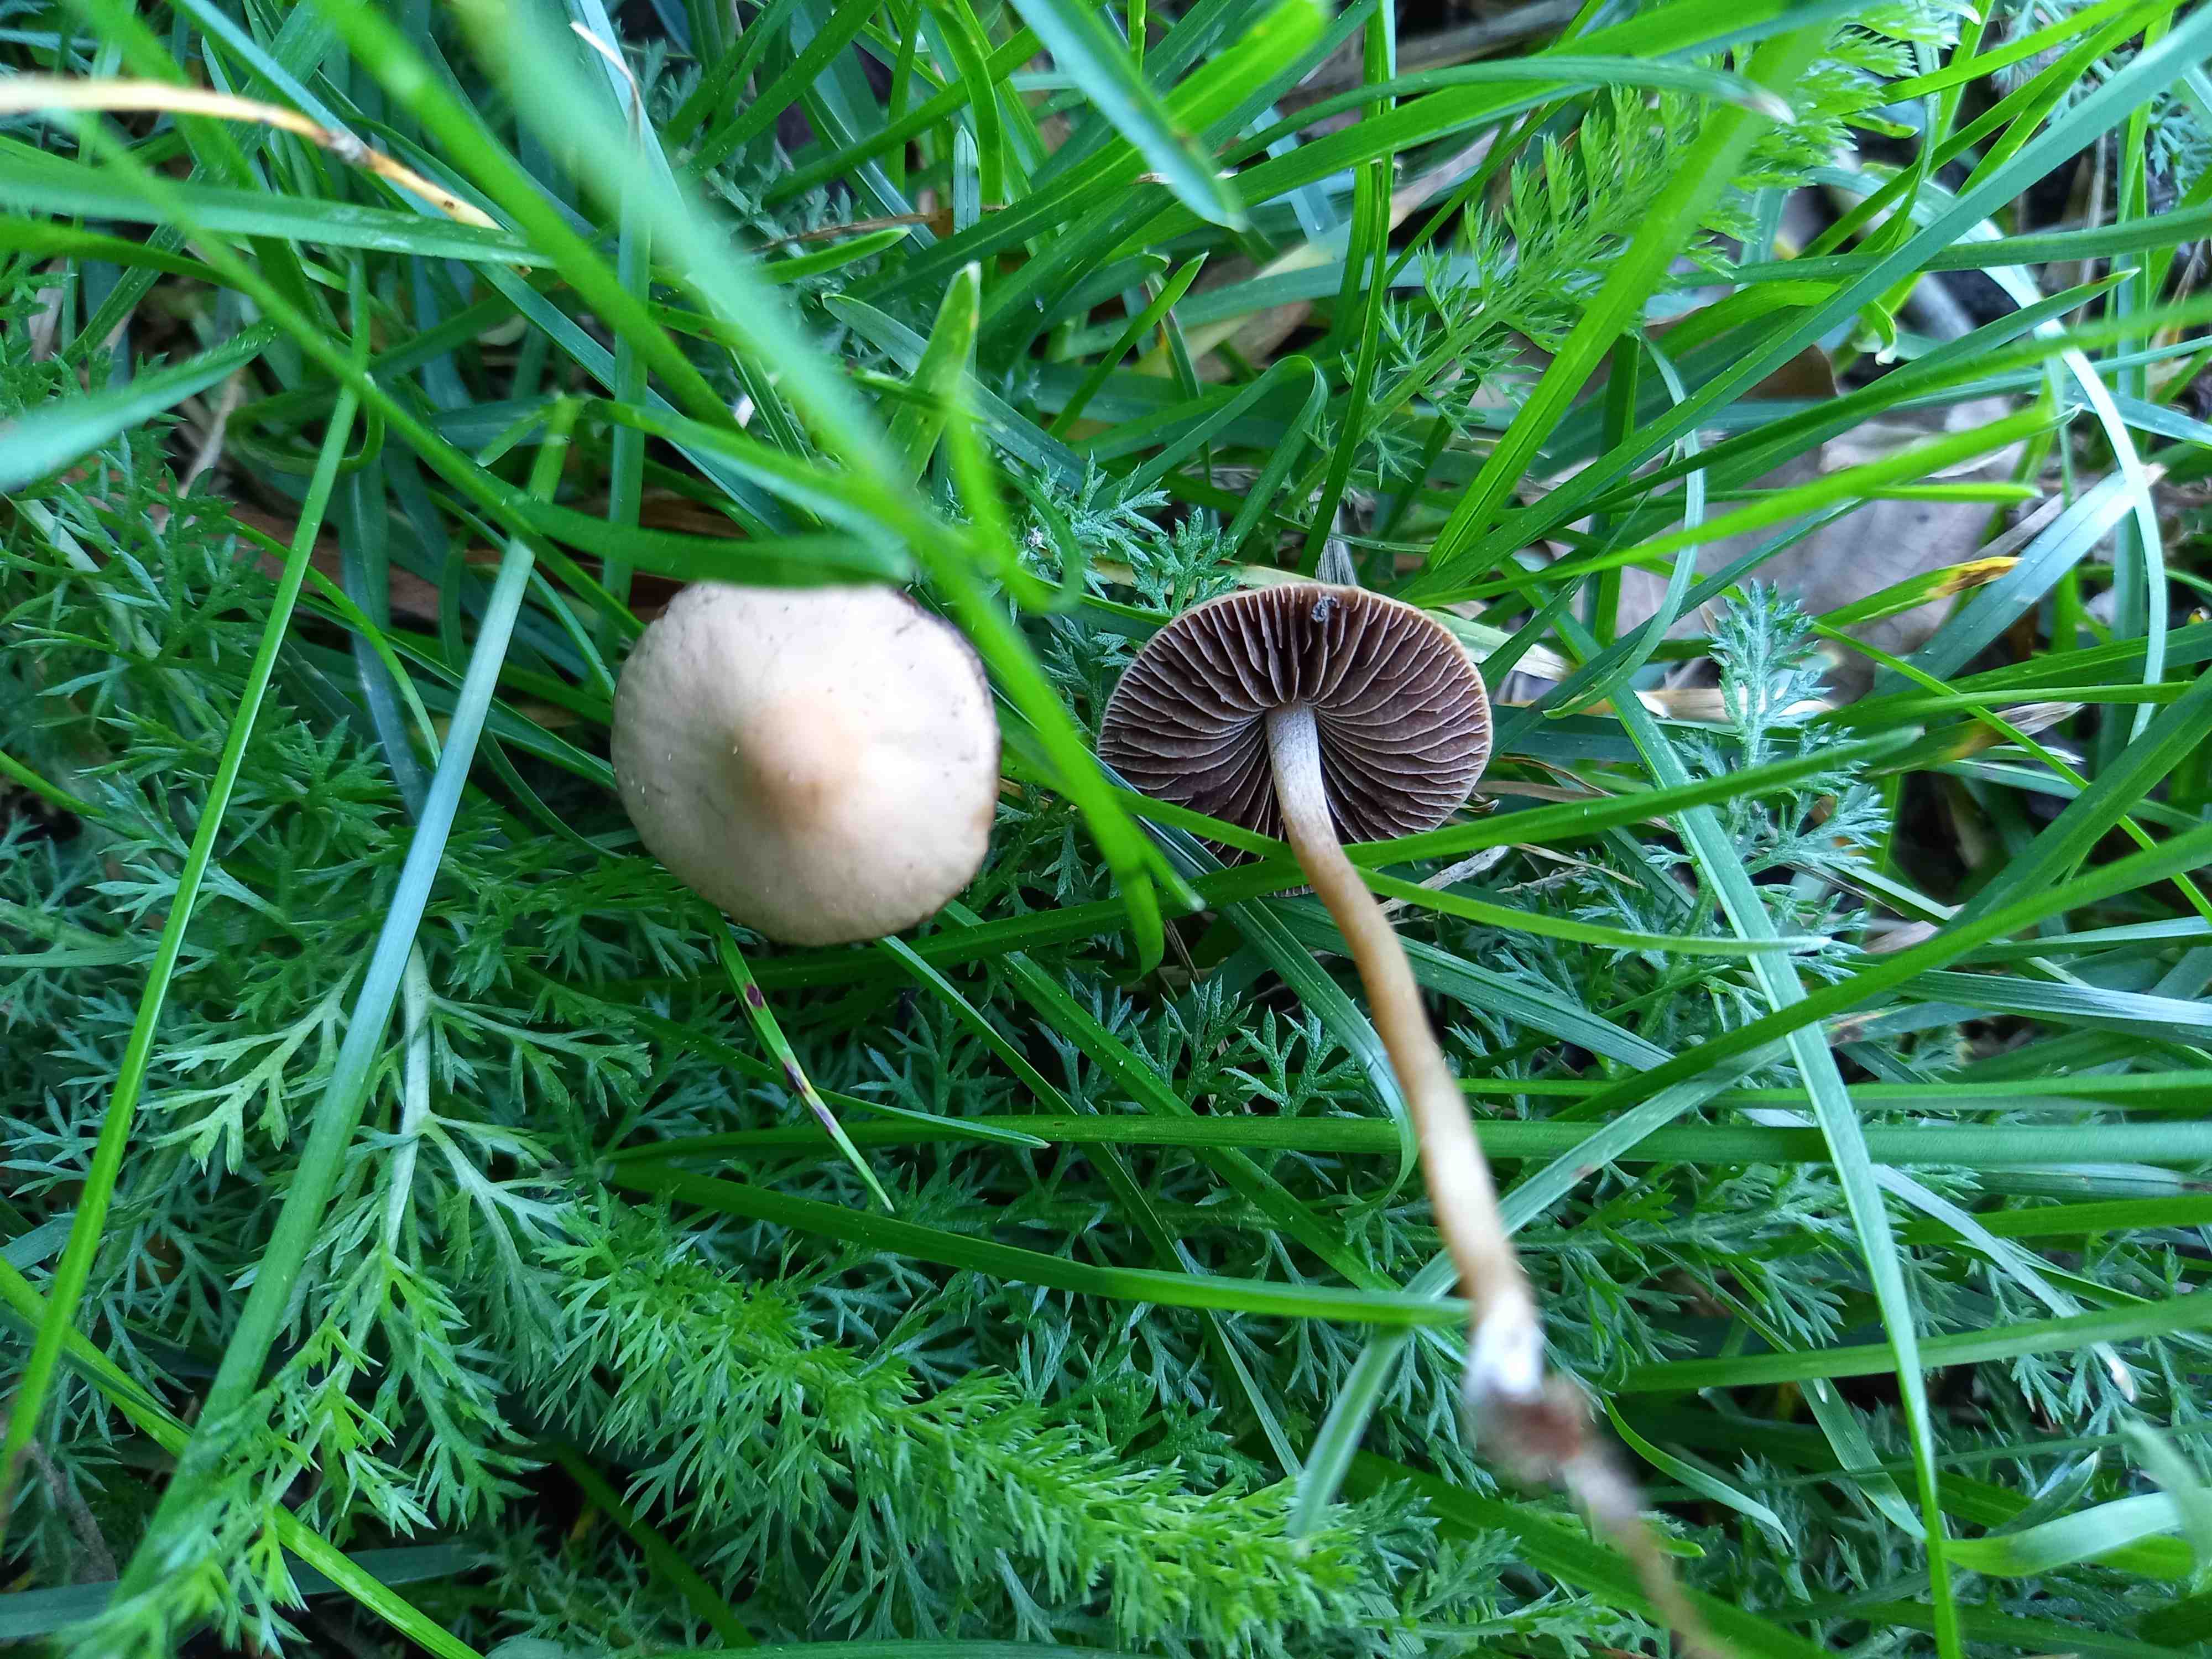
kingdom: Fungi
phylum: Basidiomycota
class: Agaricomycetes
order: Agaricales
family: Bolbitiaceae
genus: Panaeolina
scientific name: Panaeolina foenisecii
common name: høslætsvamp
